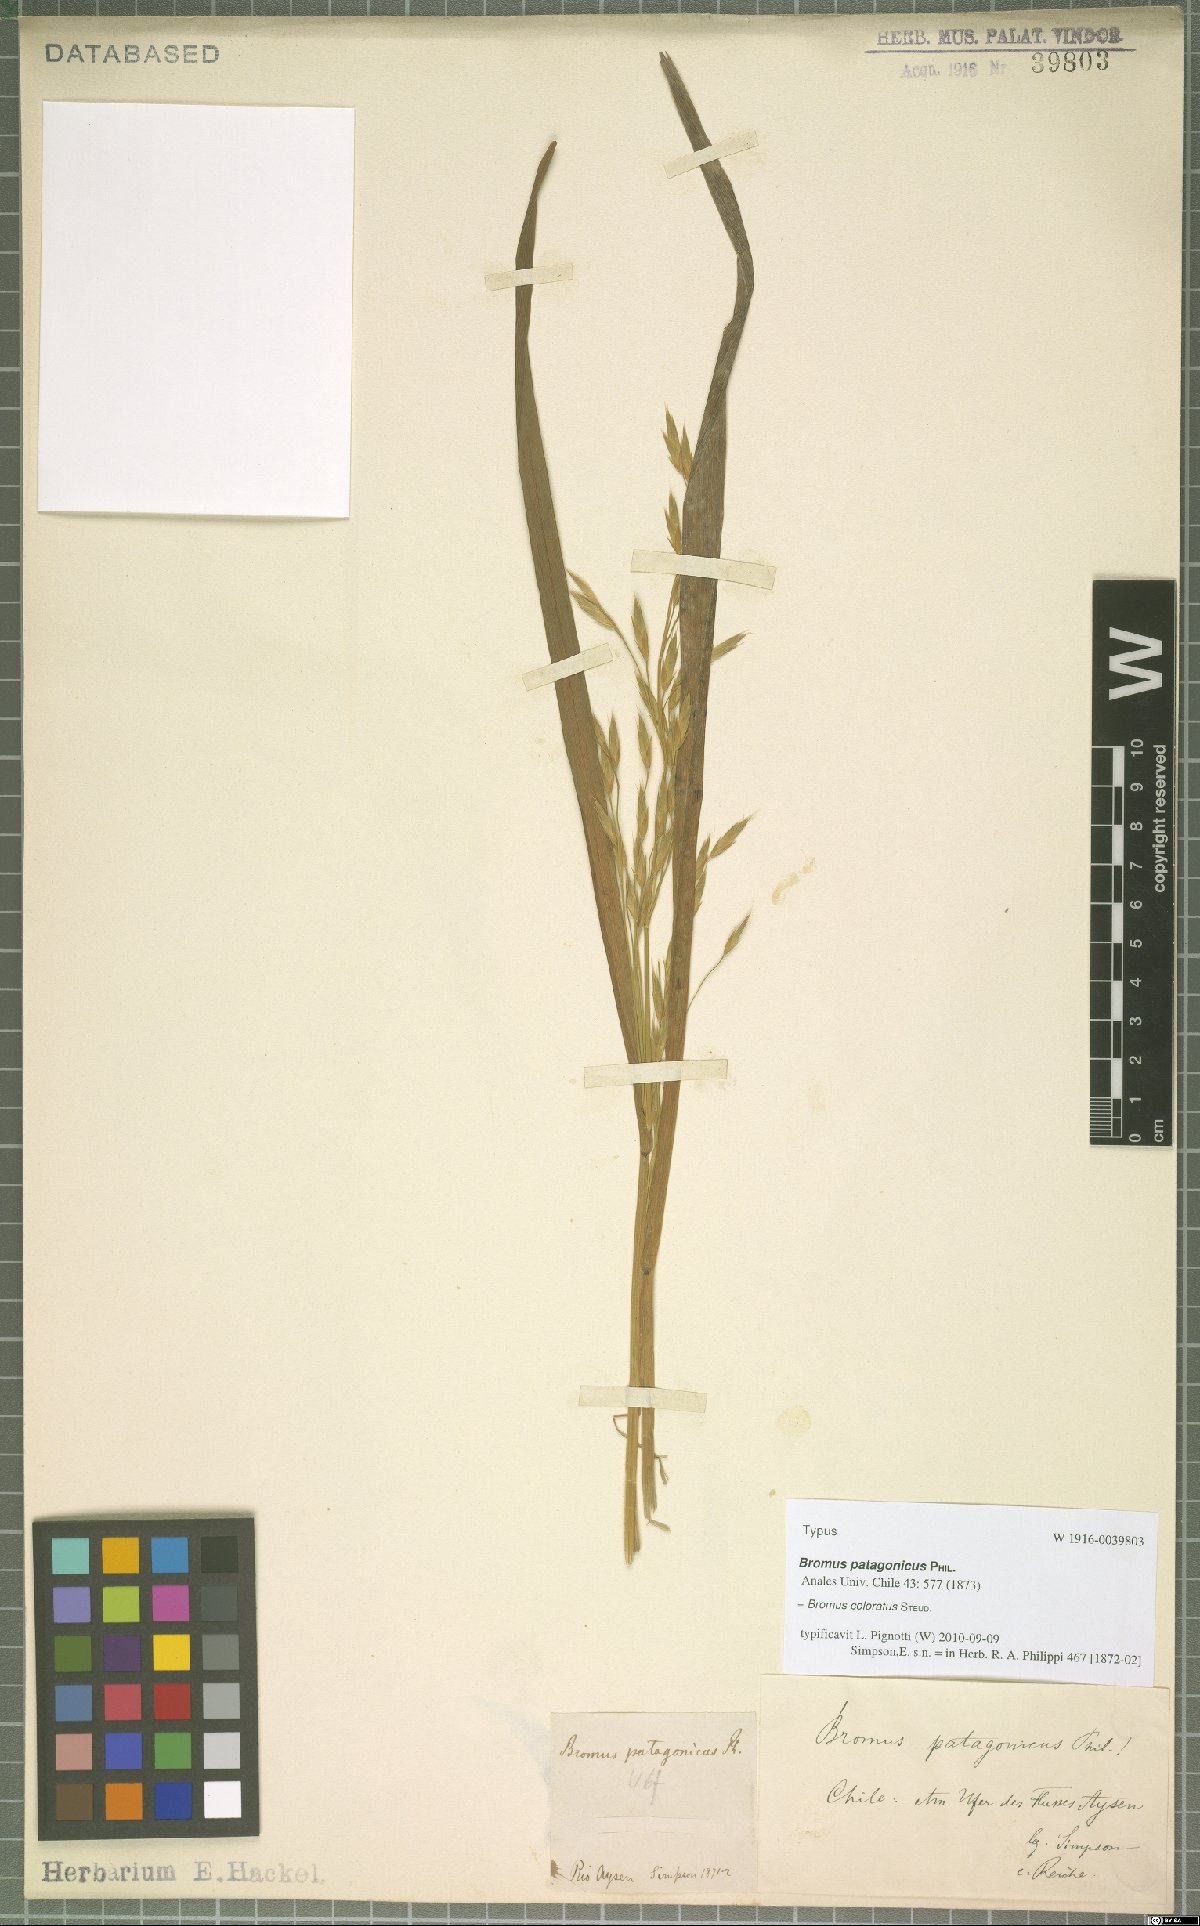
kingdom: Plantae
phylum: Tracheophyta
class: Liliopsida
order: Poales
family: Poaceae
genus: Bromus
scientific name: Bromus coloratus
